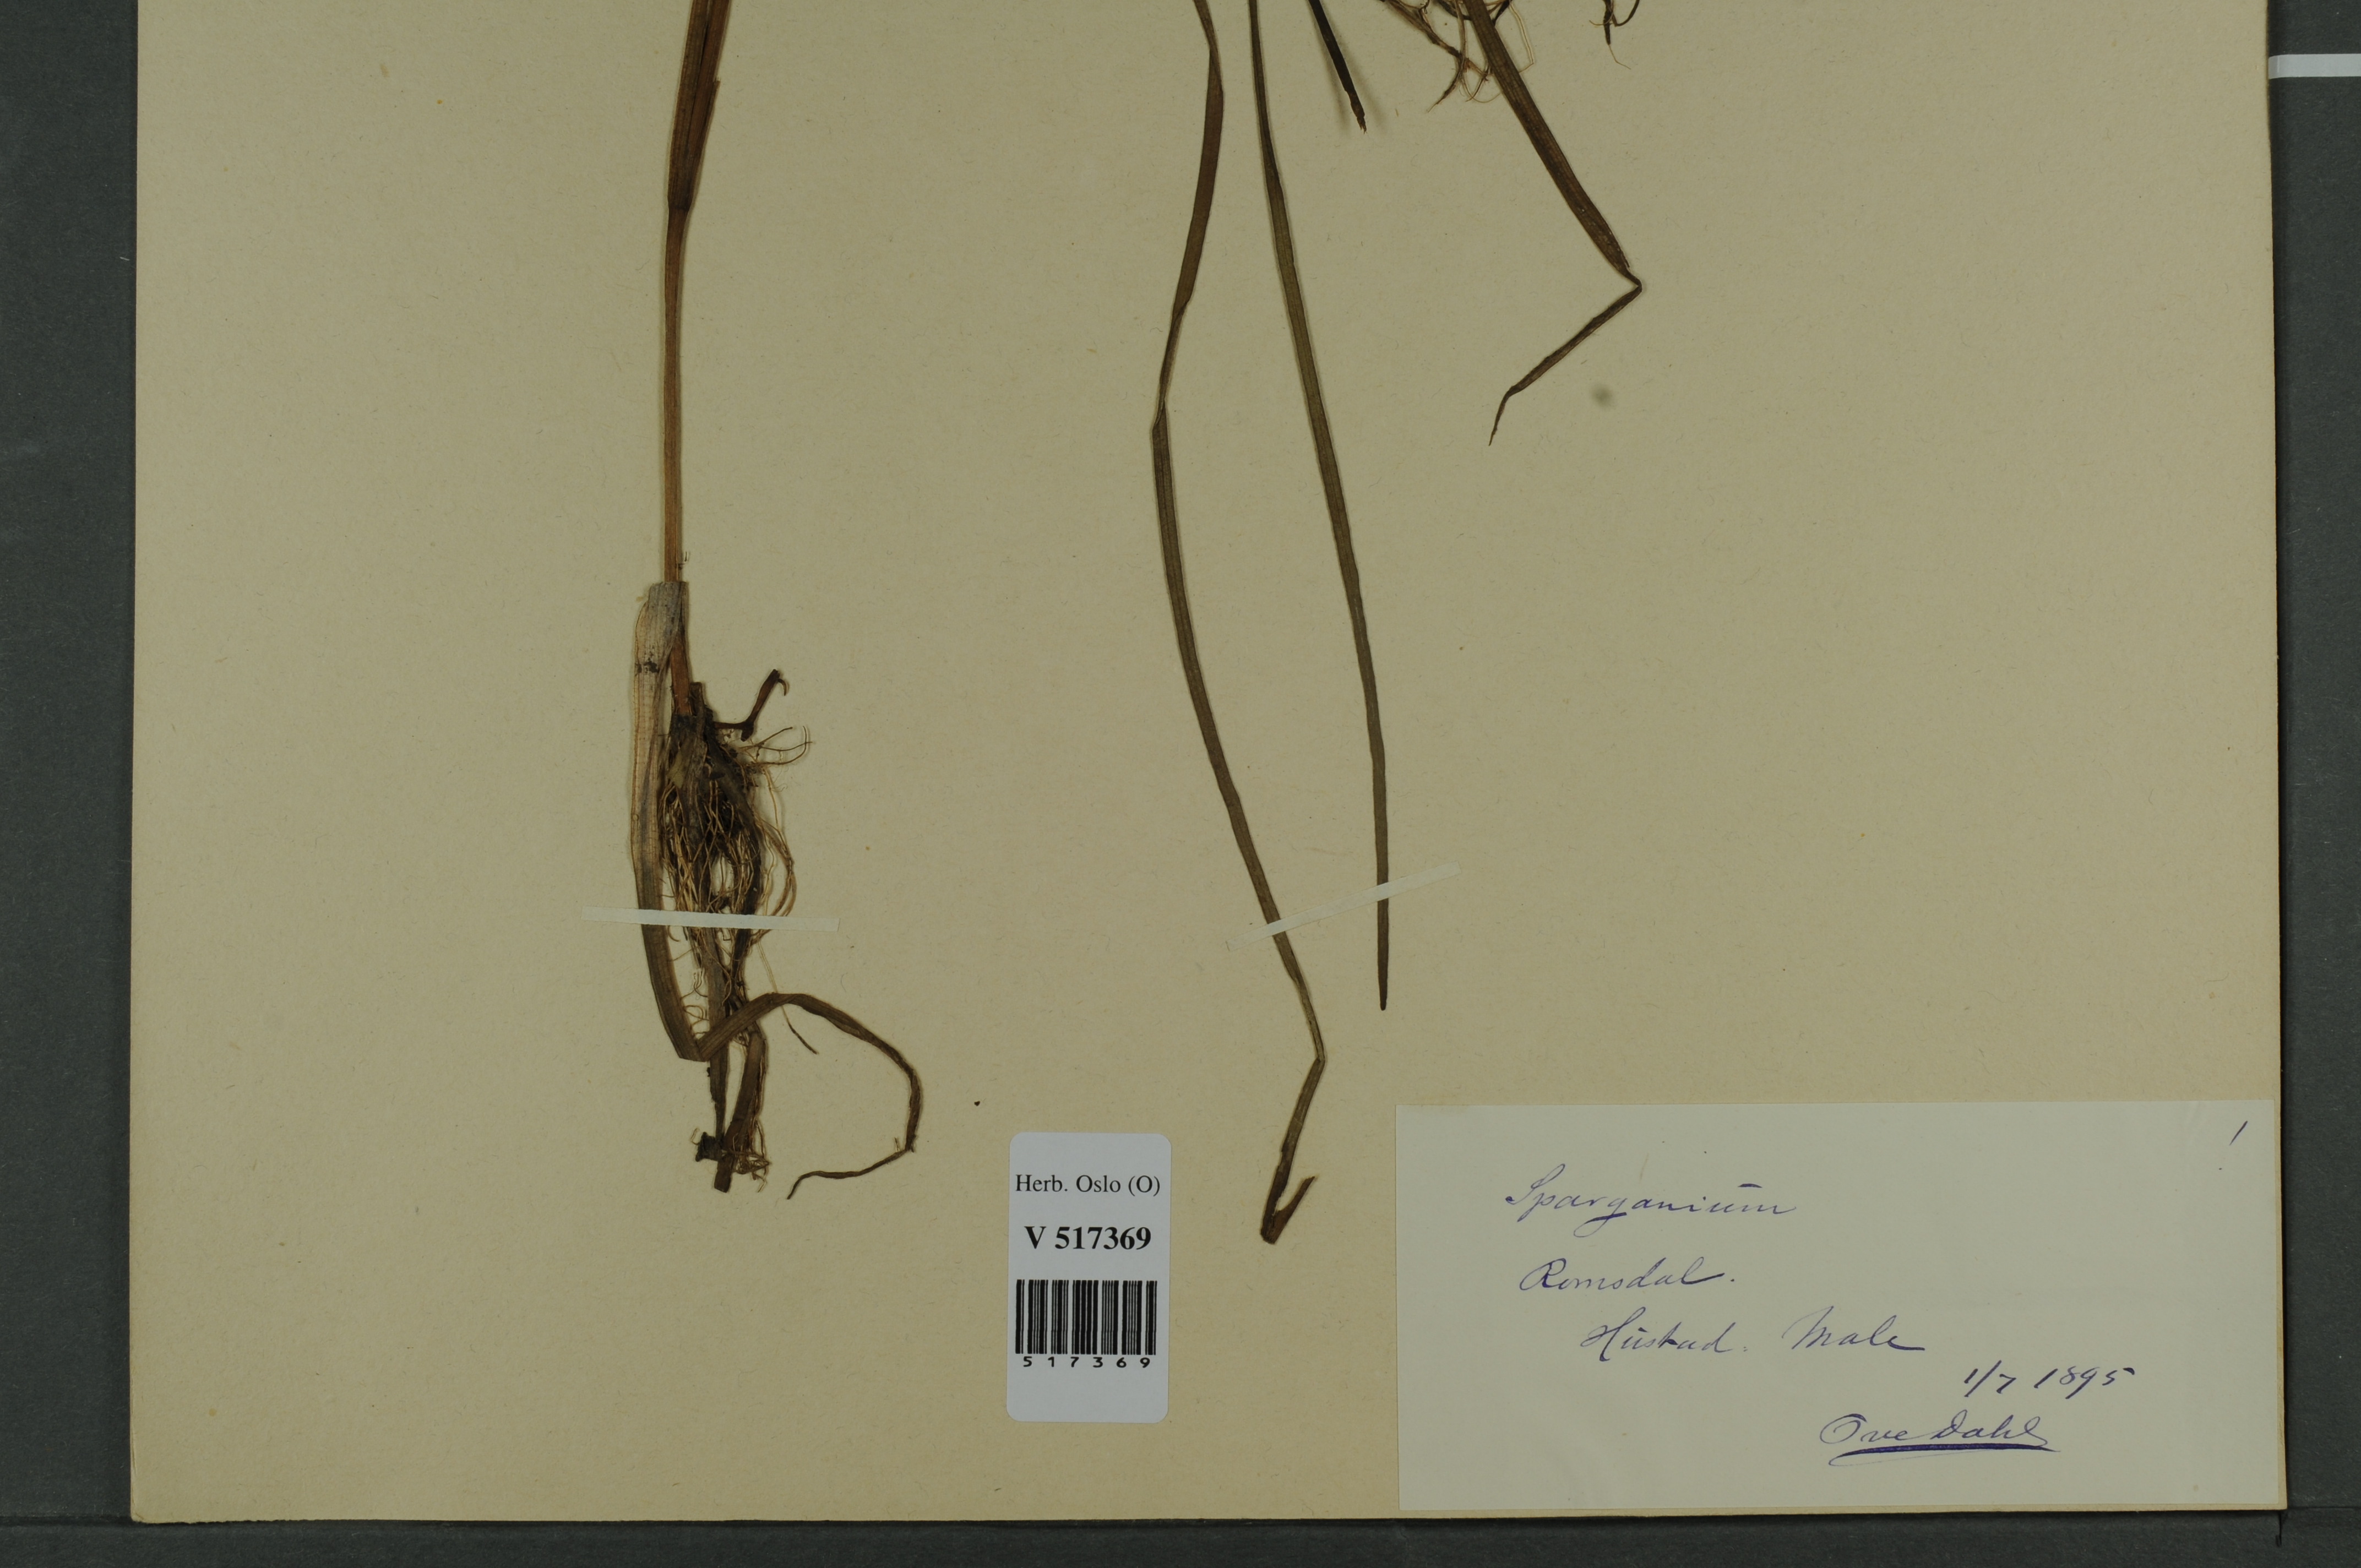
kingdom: Plantae
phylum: Tracheophyta
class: Liliopsida
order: Poales
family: Typhaceae
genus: Sparganium
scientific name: Sparganium angustifolium
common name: Floating bur-reed
